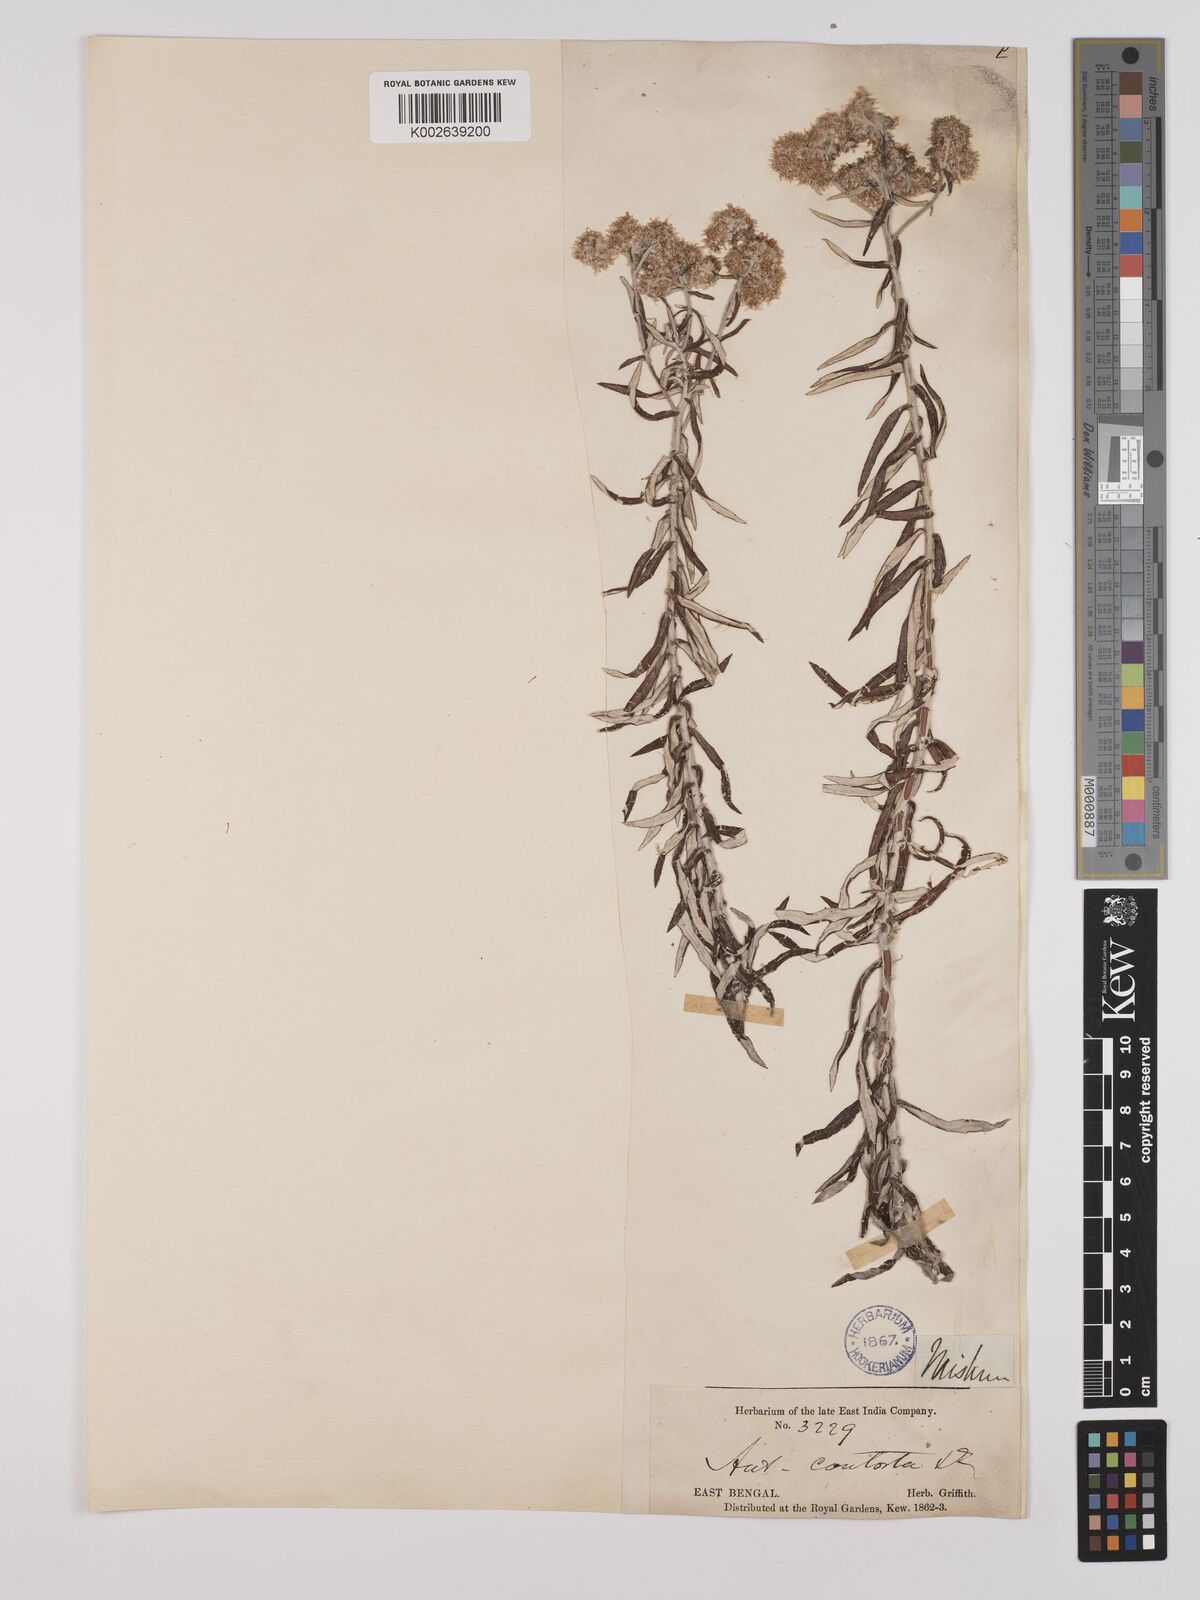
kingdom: Plantae
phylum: Tracheophyta
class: Magnoliopsida
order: Asterales
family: Asteraceae
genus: Anaphalis
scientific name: Anaphalis contorta
